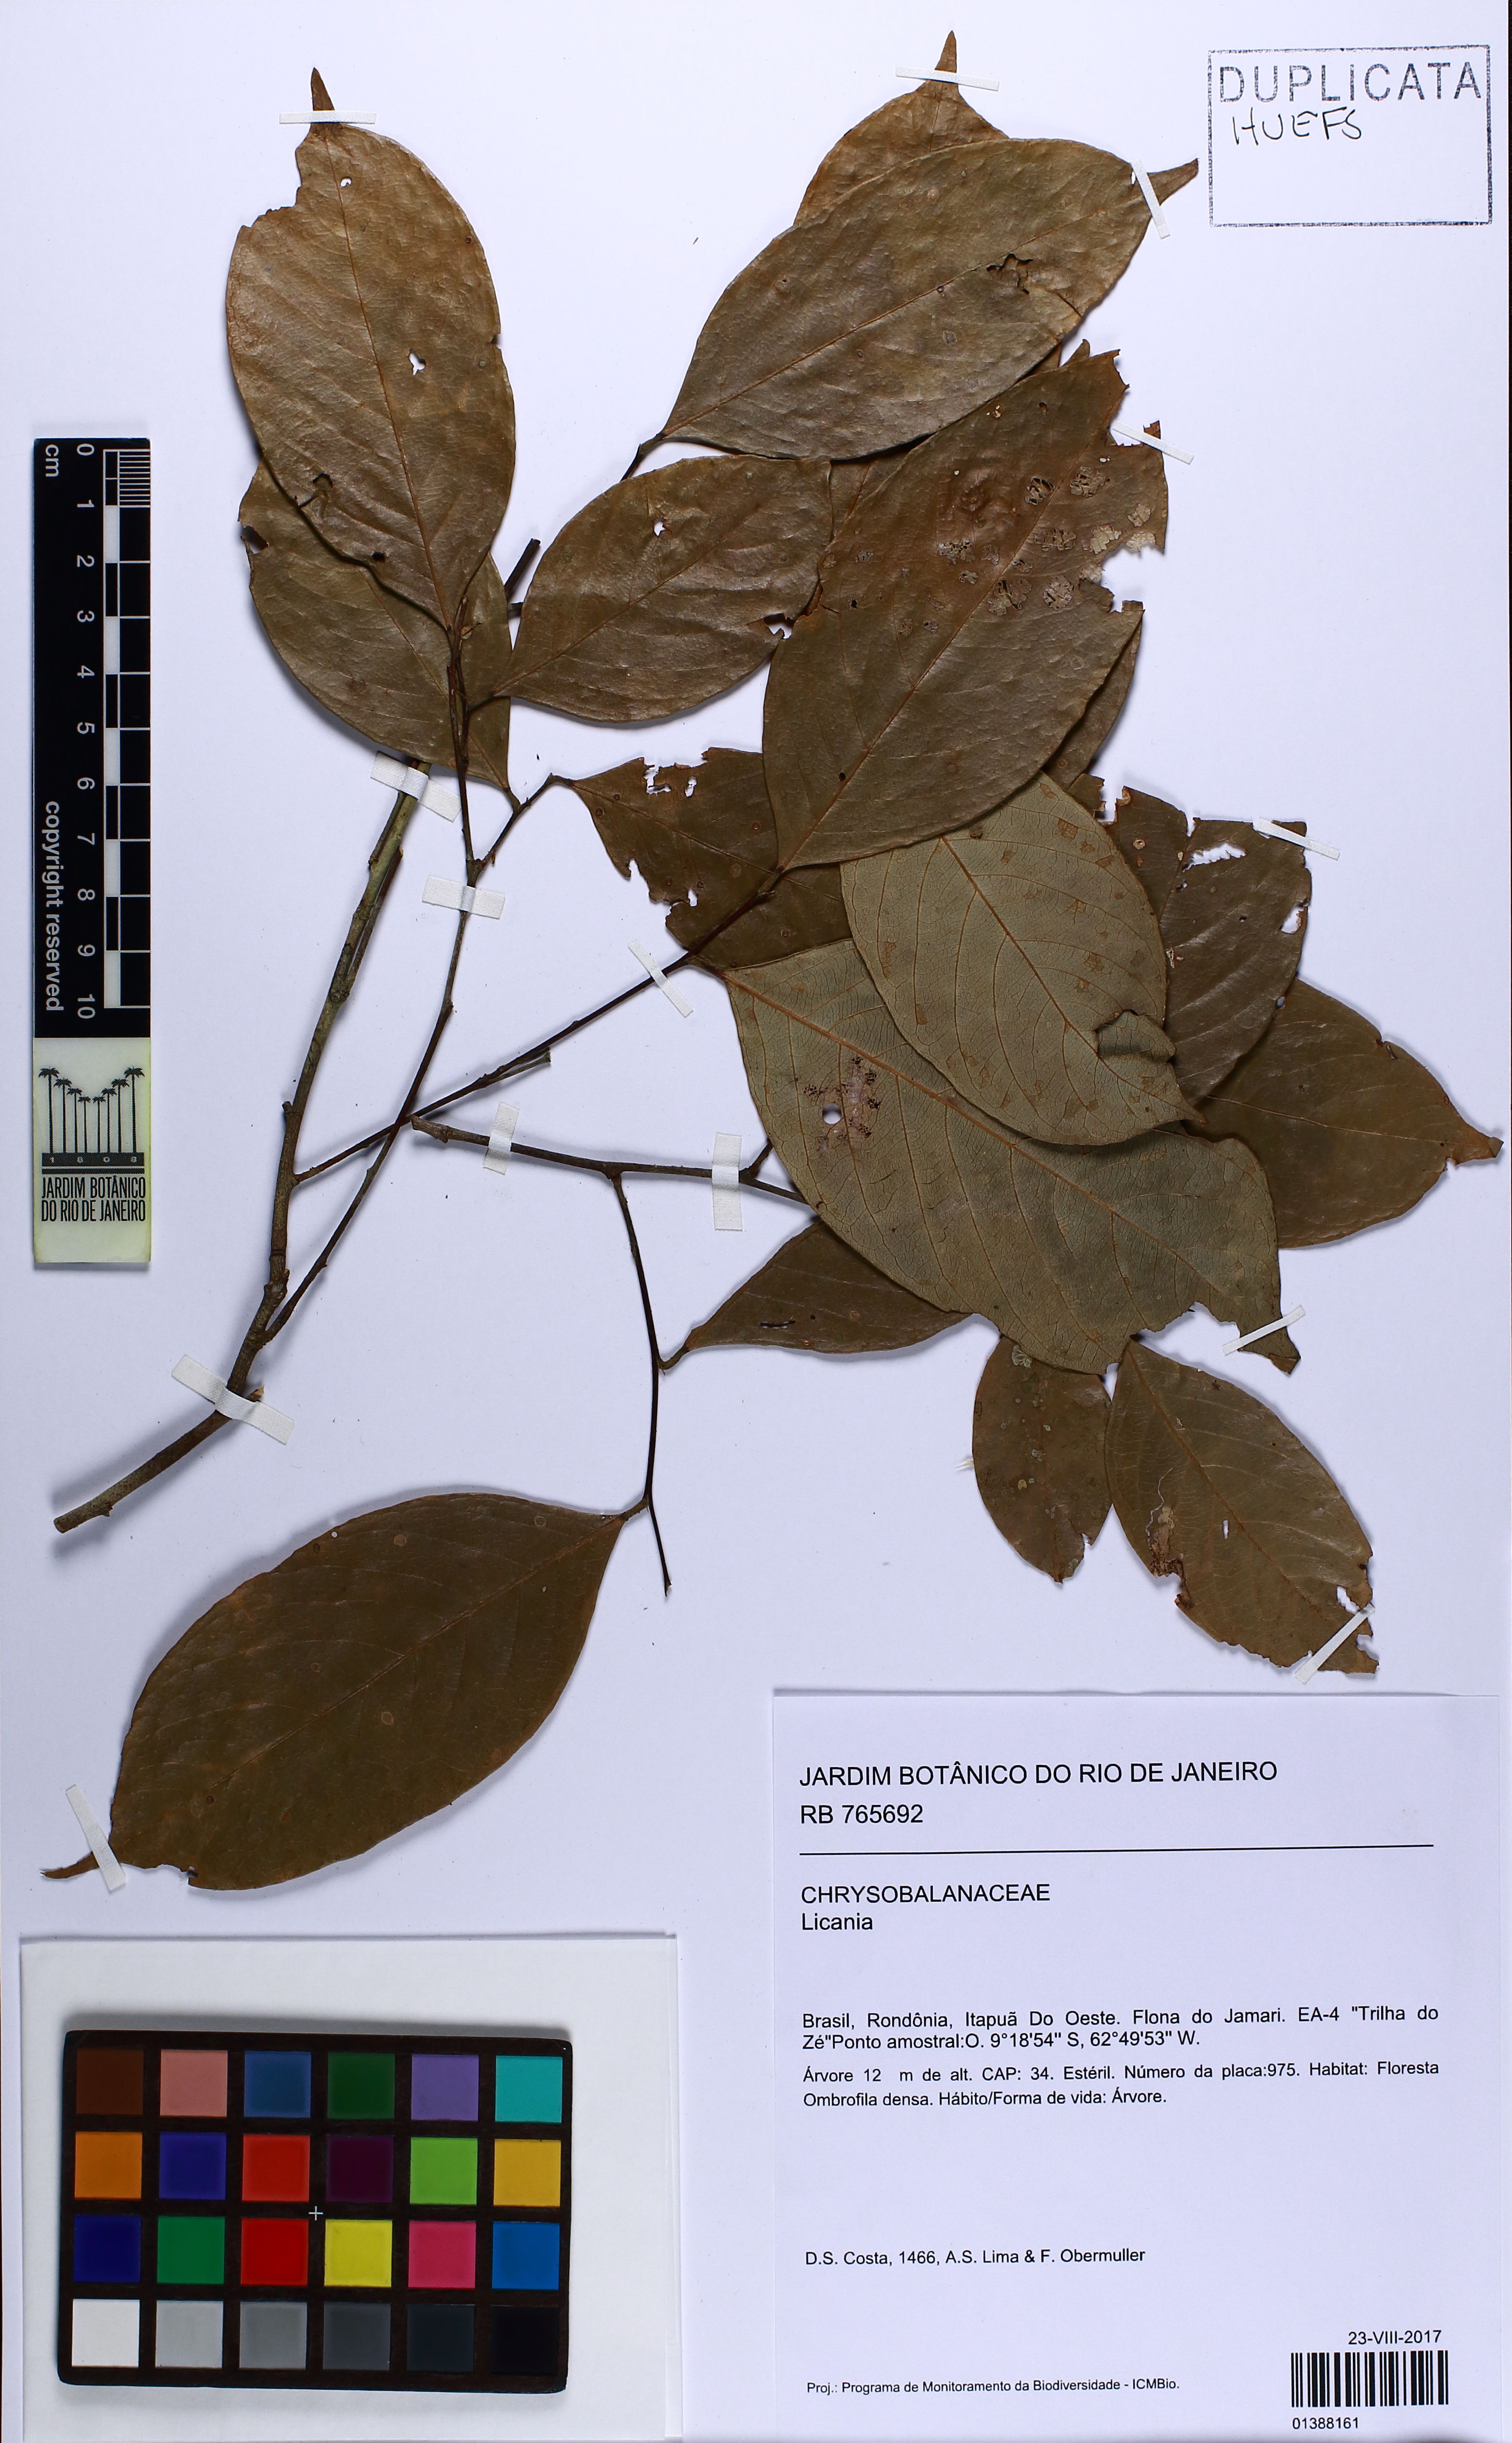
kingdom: Plantae
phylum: Tracheophyta
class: Magnoliopsida
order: Malpighiales
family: Chrysobalanaceae
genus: Licania
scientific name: Licania
